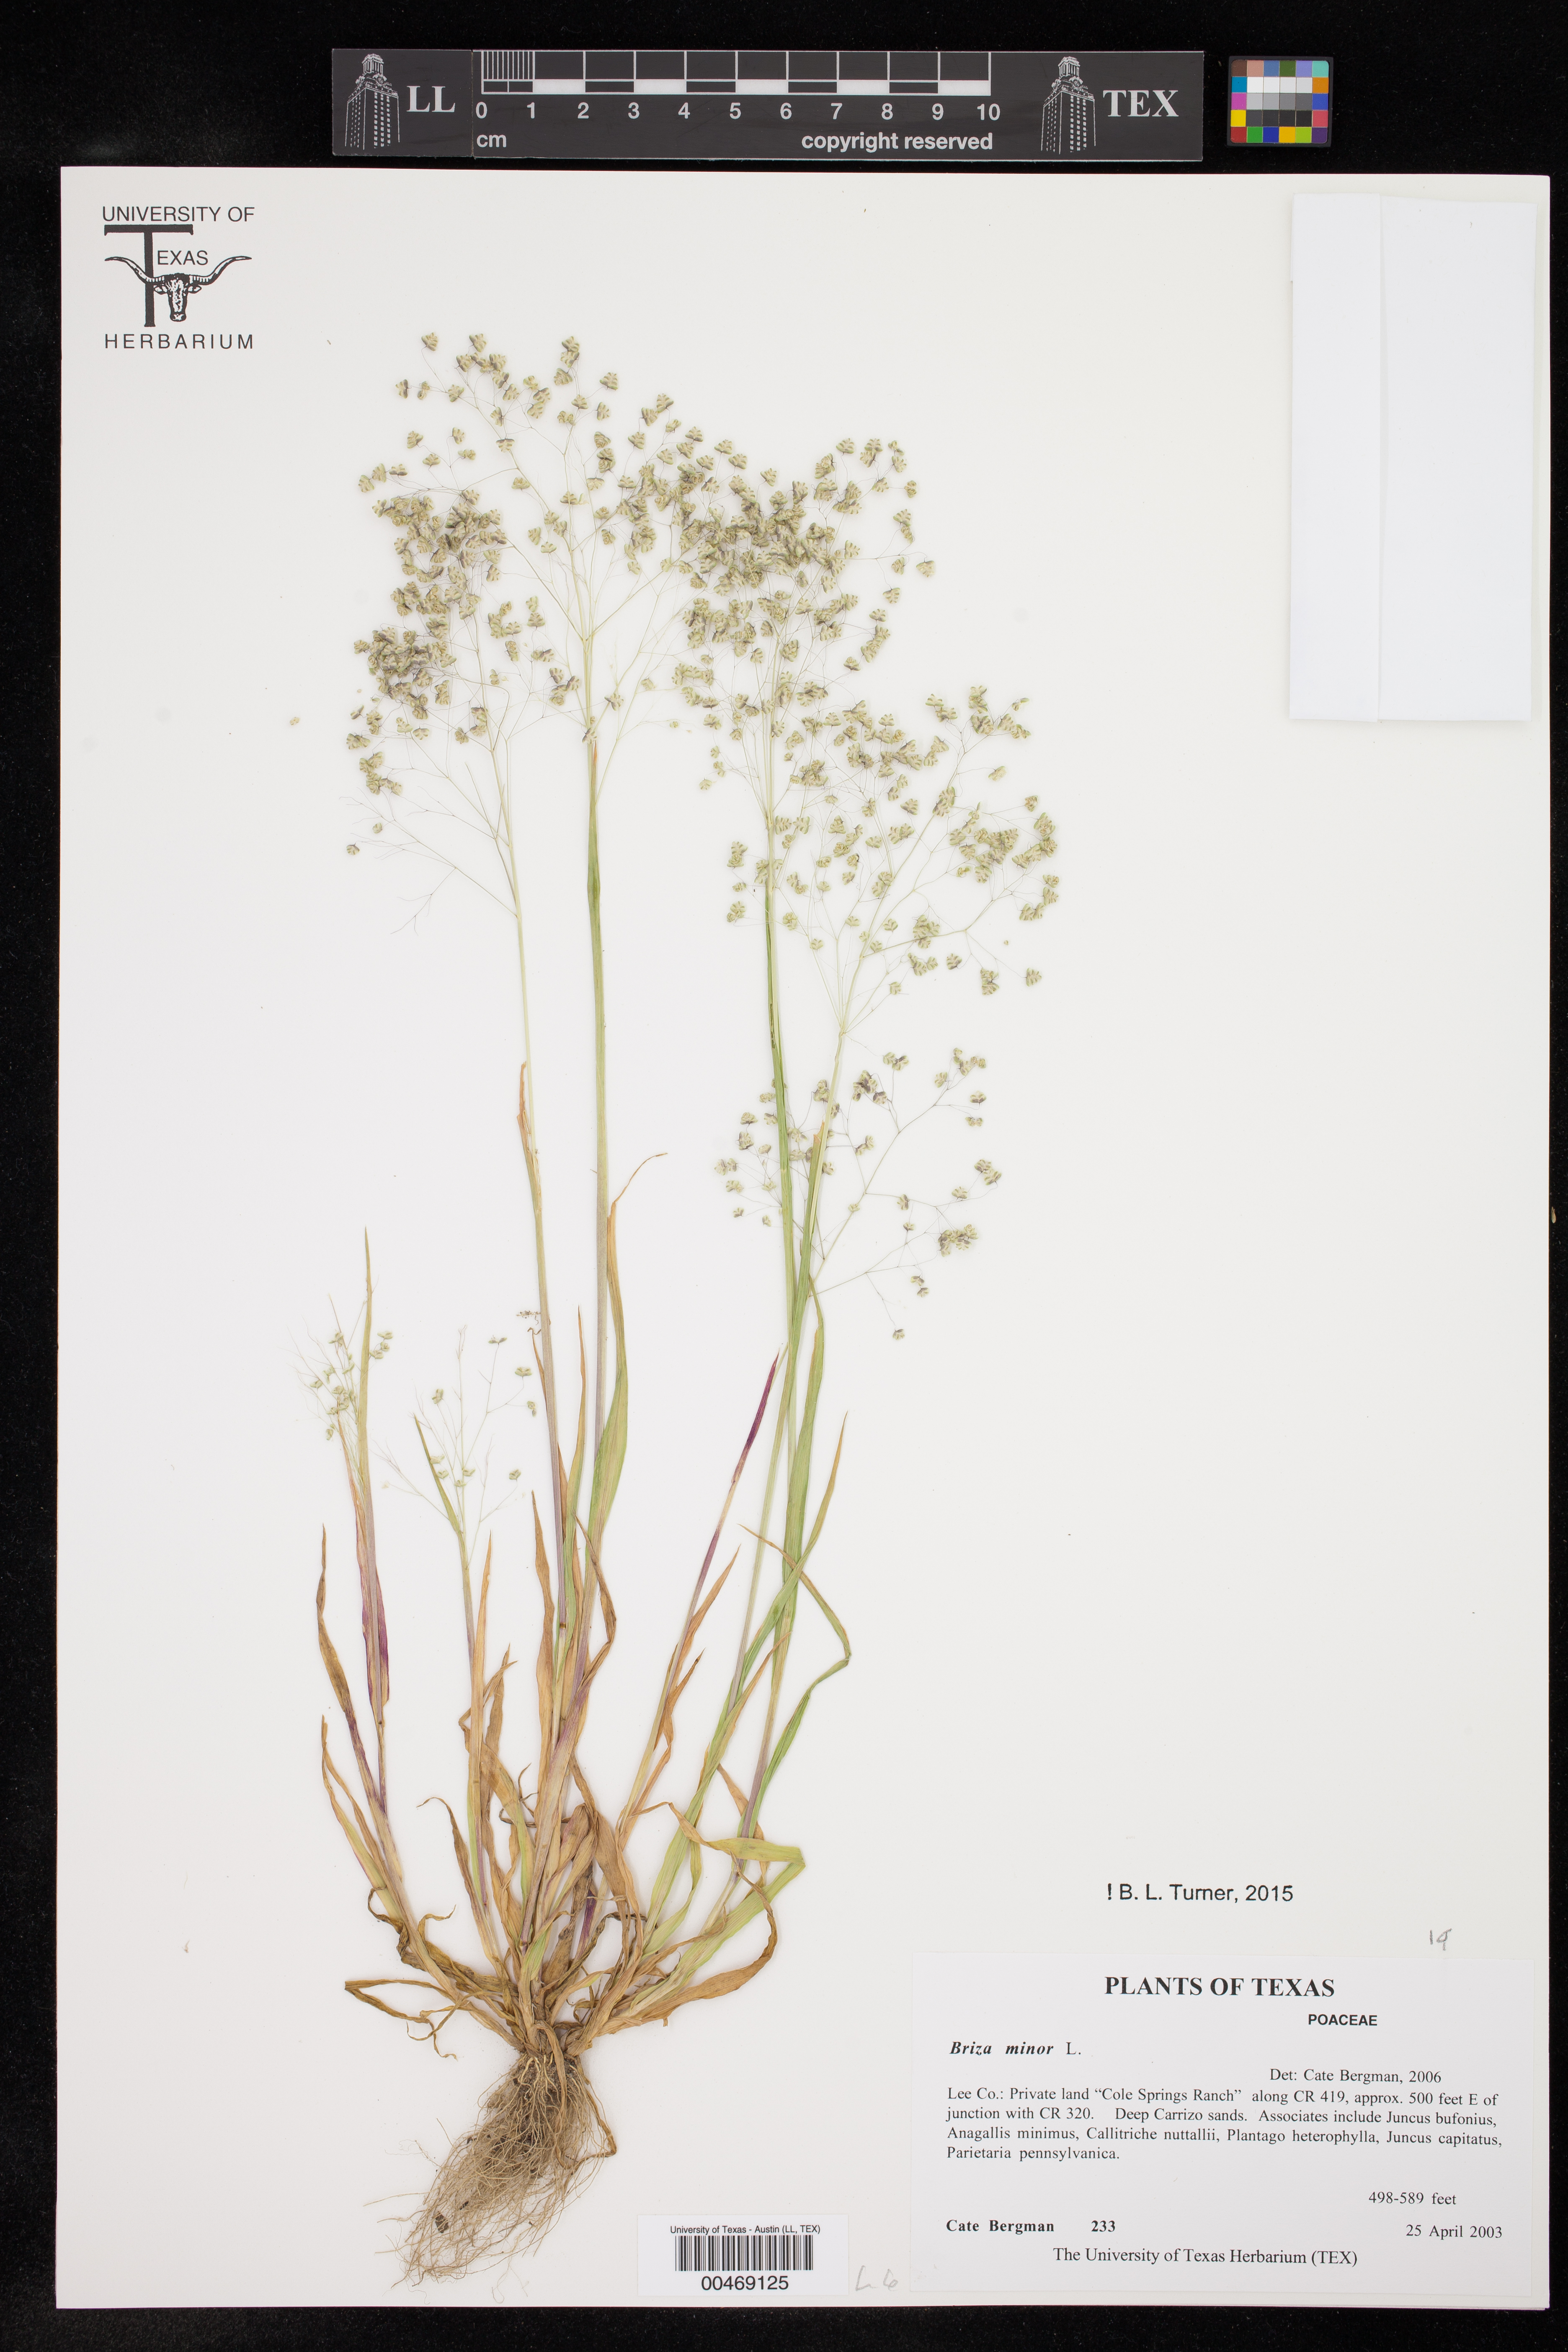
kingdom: Plantae
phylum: Tracheophyta
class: Liliopsida
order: Poales
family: Poaceae
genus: Briza
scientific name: Briza minor
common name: Lesser quaking-grass
